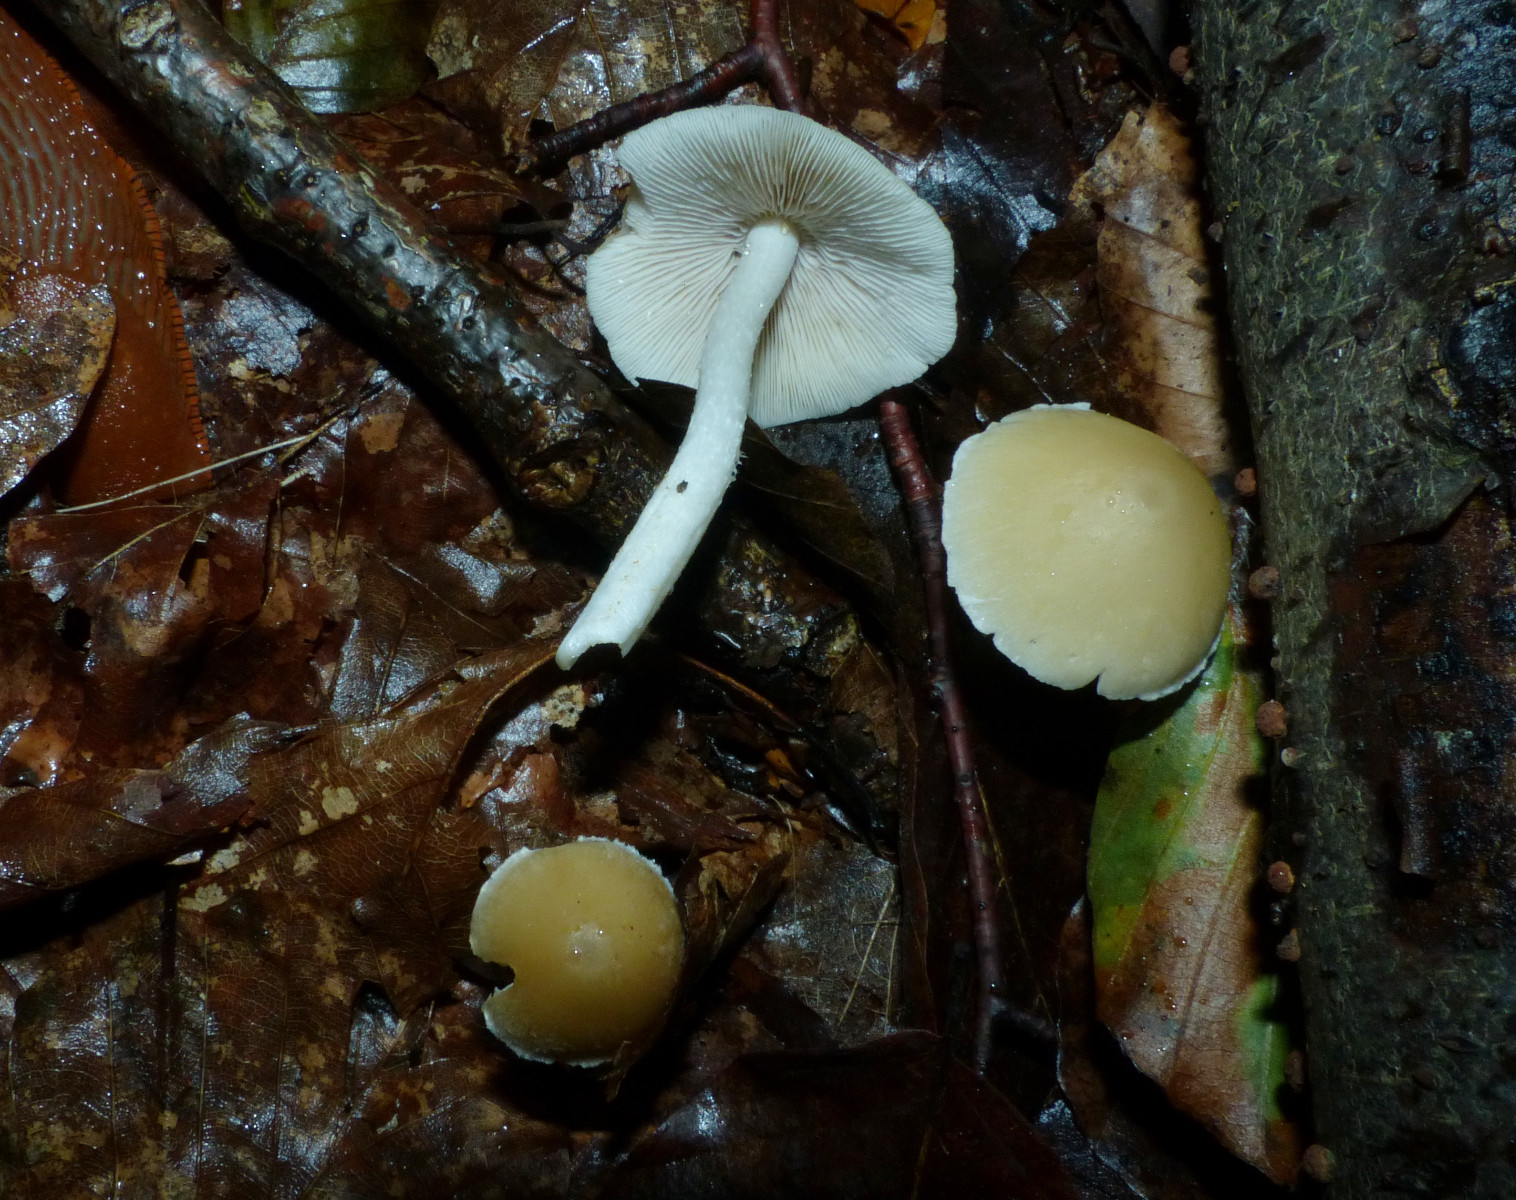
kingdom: Fungi
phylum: Basidiomycota
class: Agaricomycetes
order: Agaricales
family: Psathyrellaceae
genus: Candolleomyces
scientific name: Candolleomyces candolleanus
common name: Candolles mørkhat
